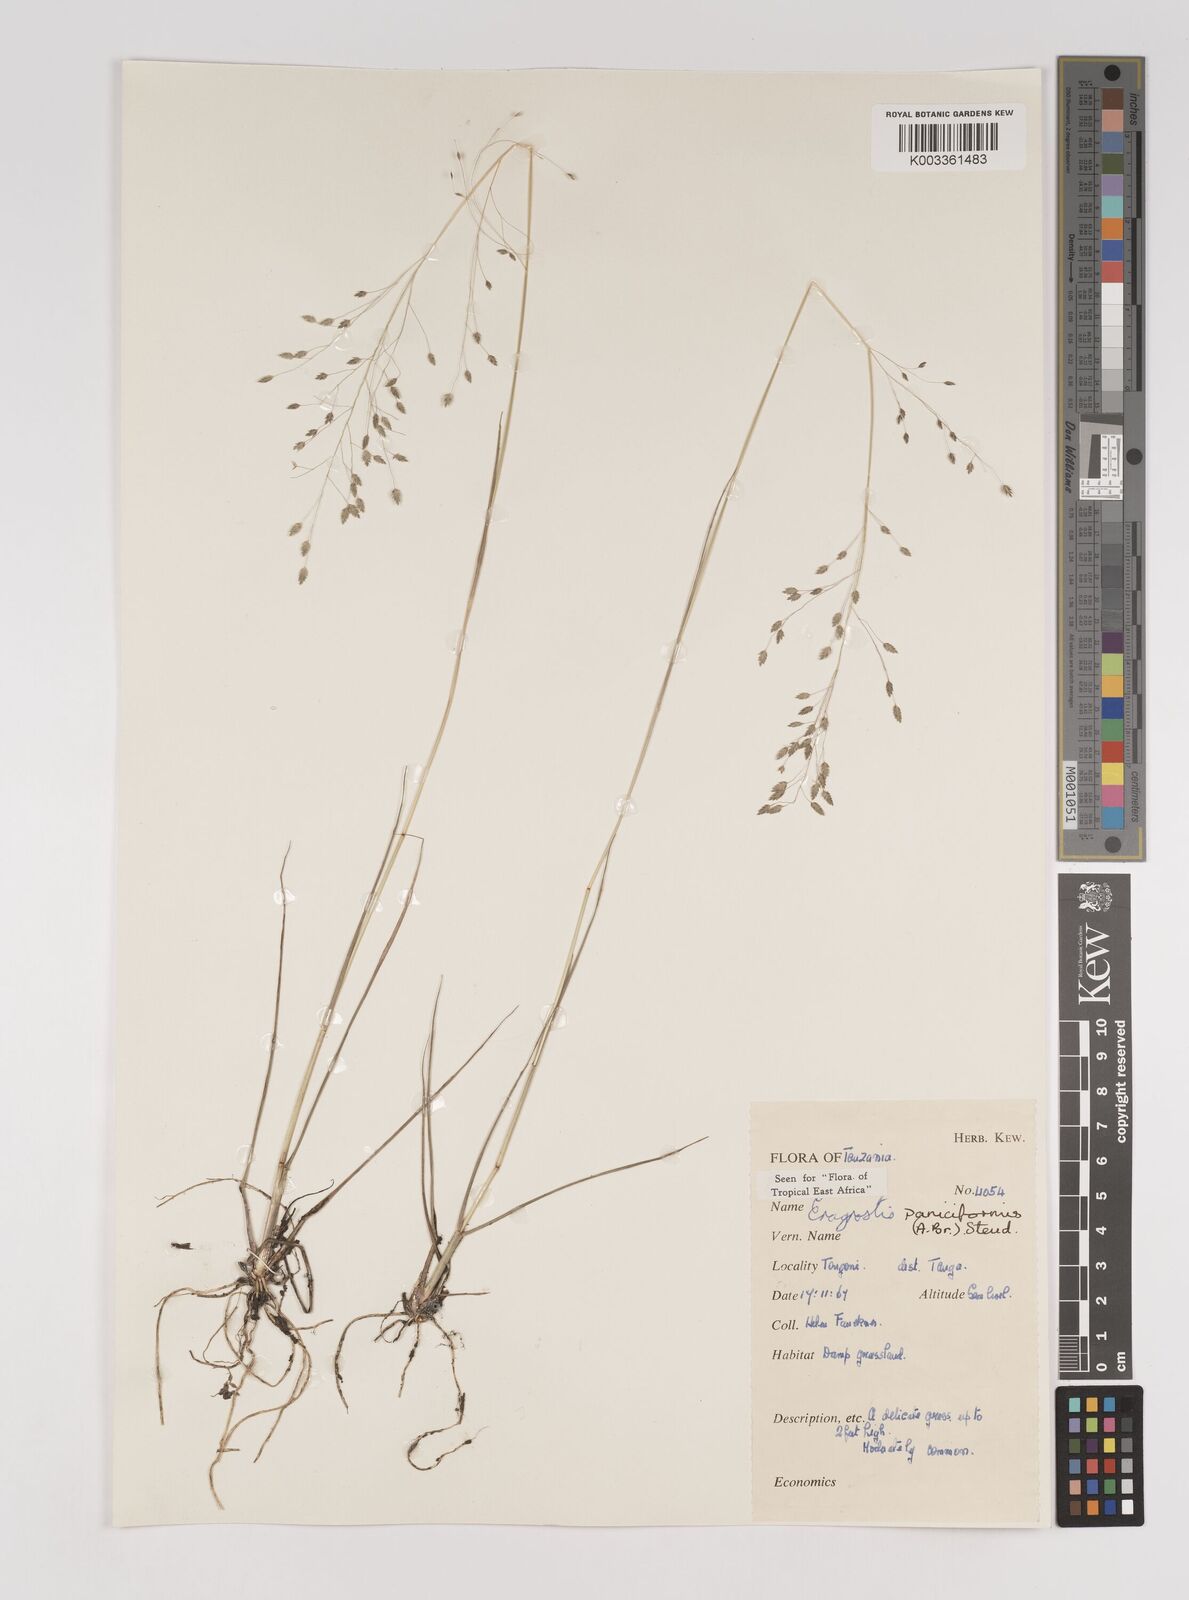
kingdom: Plantae
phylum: Tracheophyta
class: Liliopsida
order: Poales
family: Poaceae
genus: Eragrostis
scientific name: Eragrostis paniciformis
